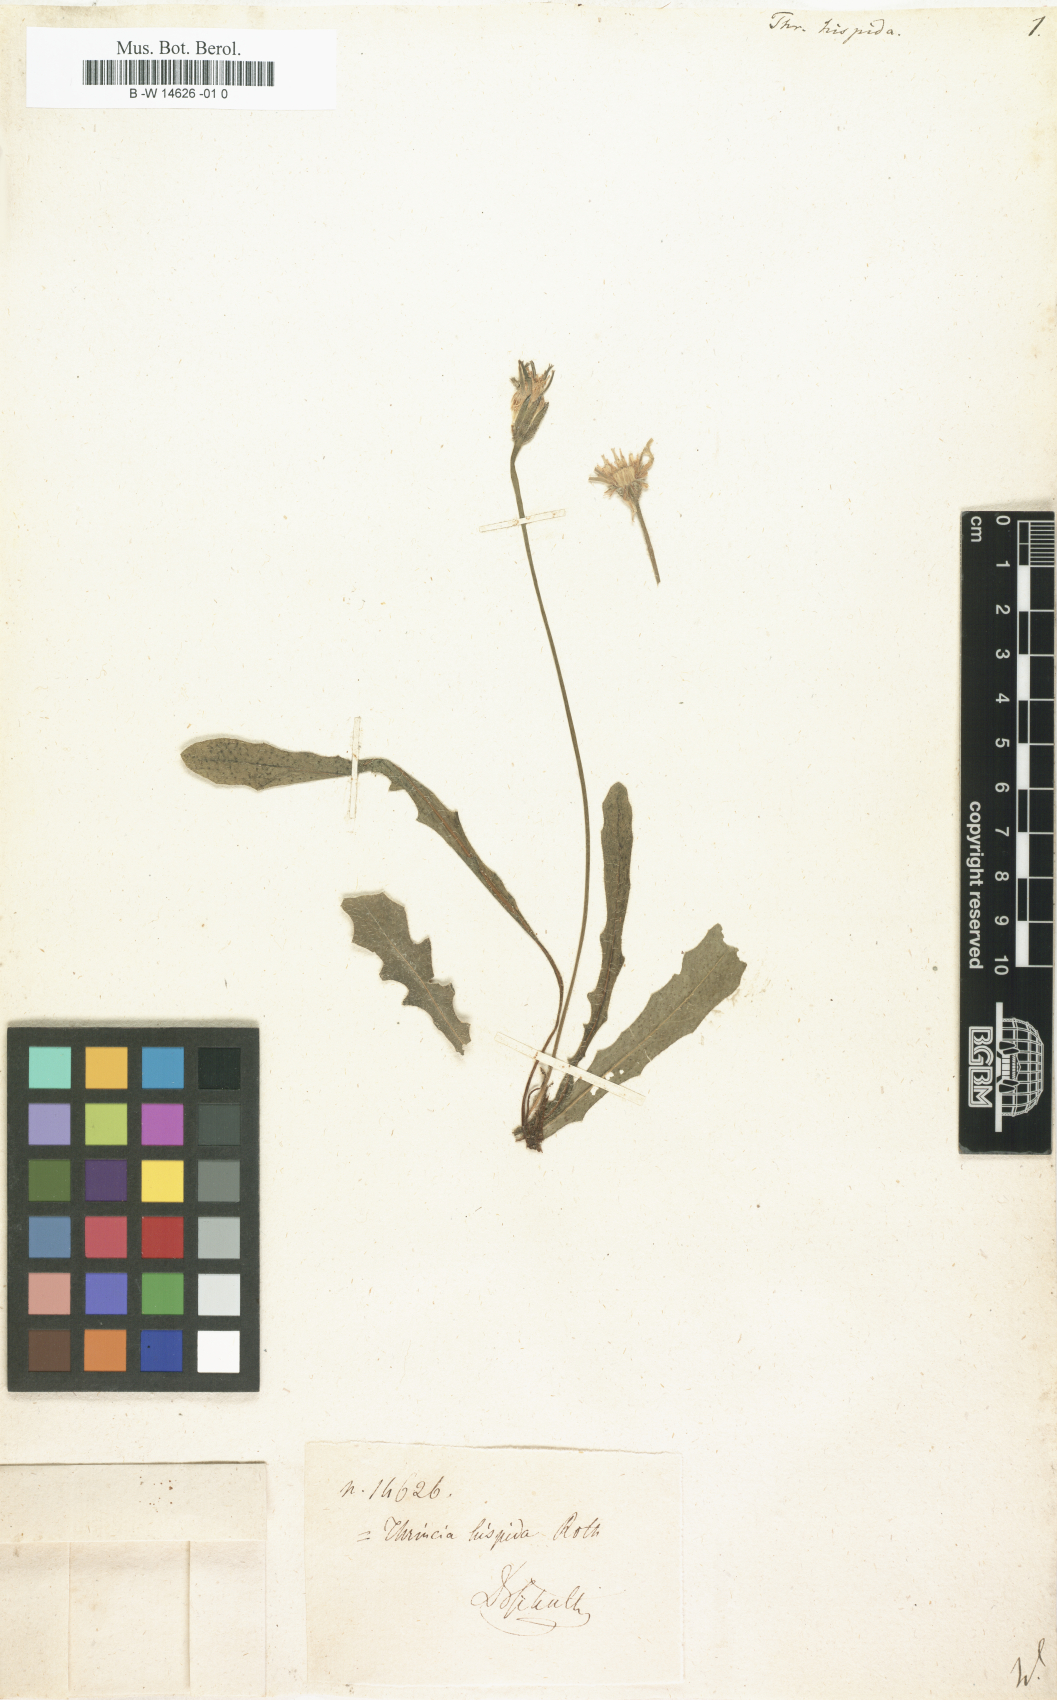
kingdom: Plantae
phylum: Tracheophyta
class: Magnoliopsida
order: Asterales
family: Asteraceae
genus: Thrincia
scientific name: Thrincia hispida
